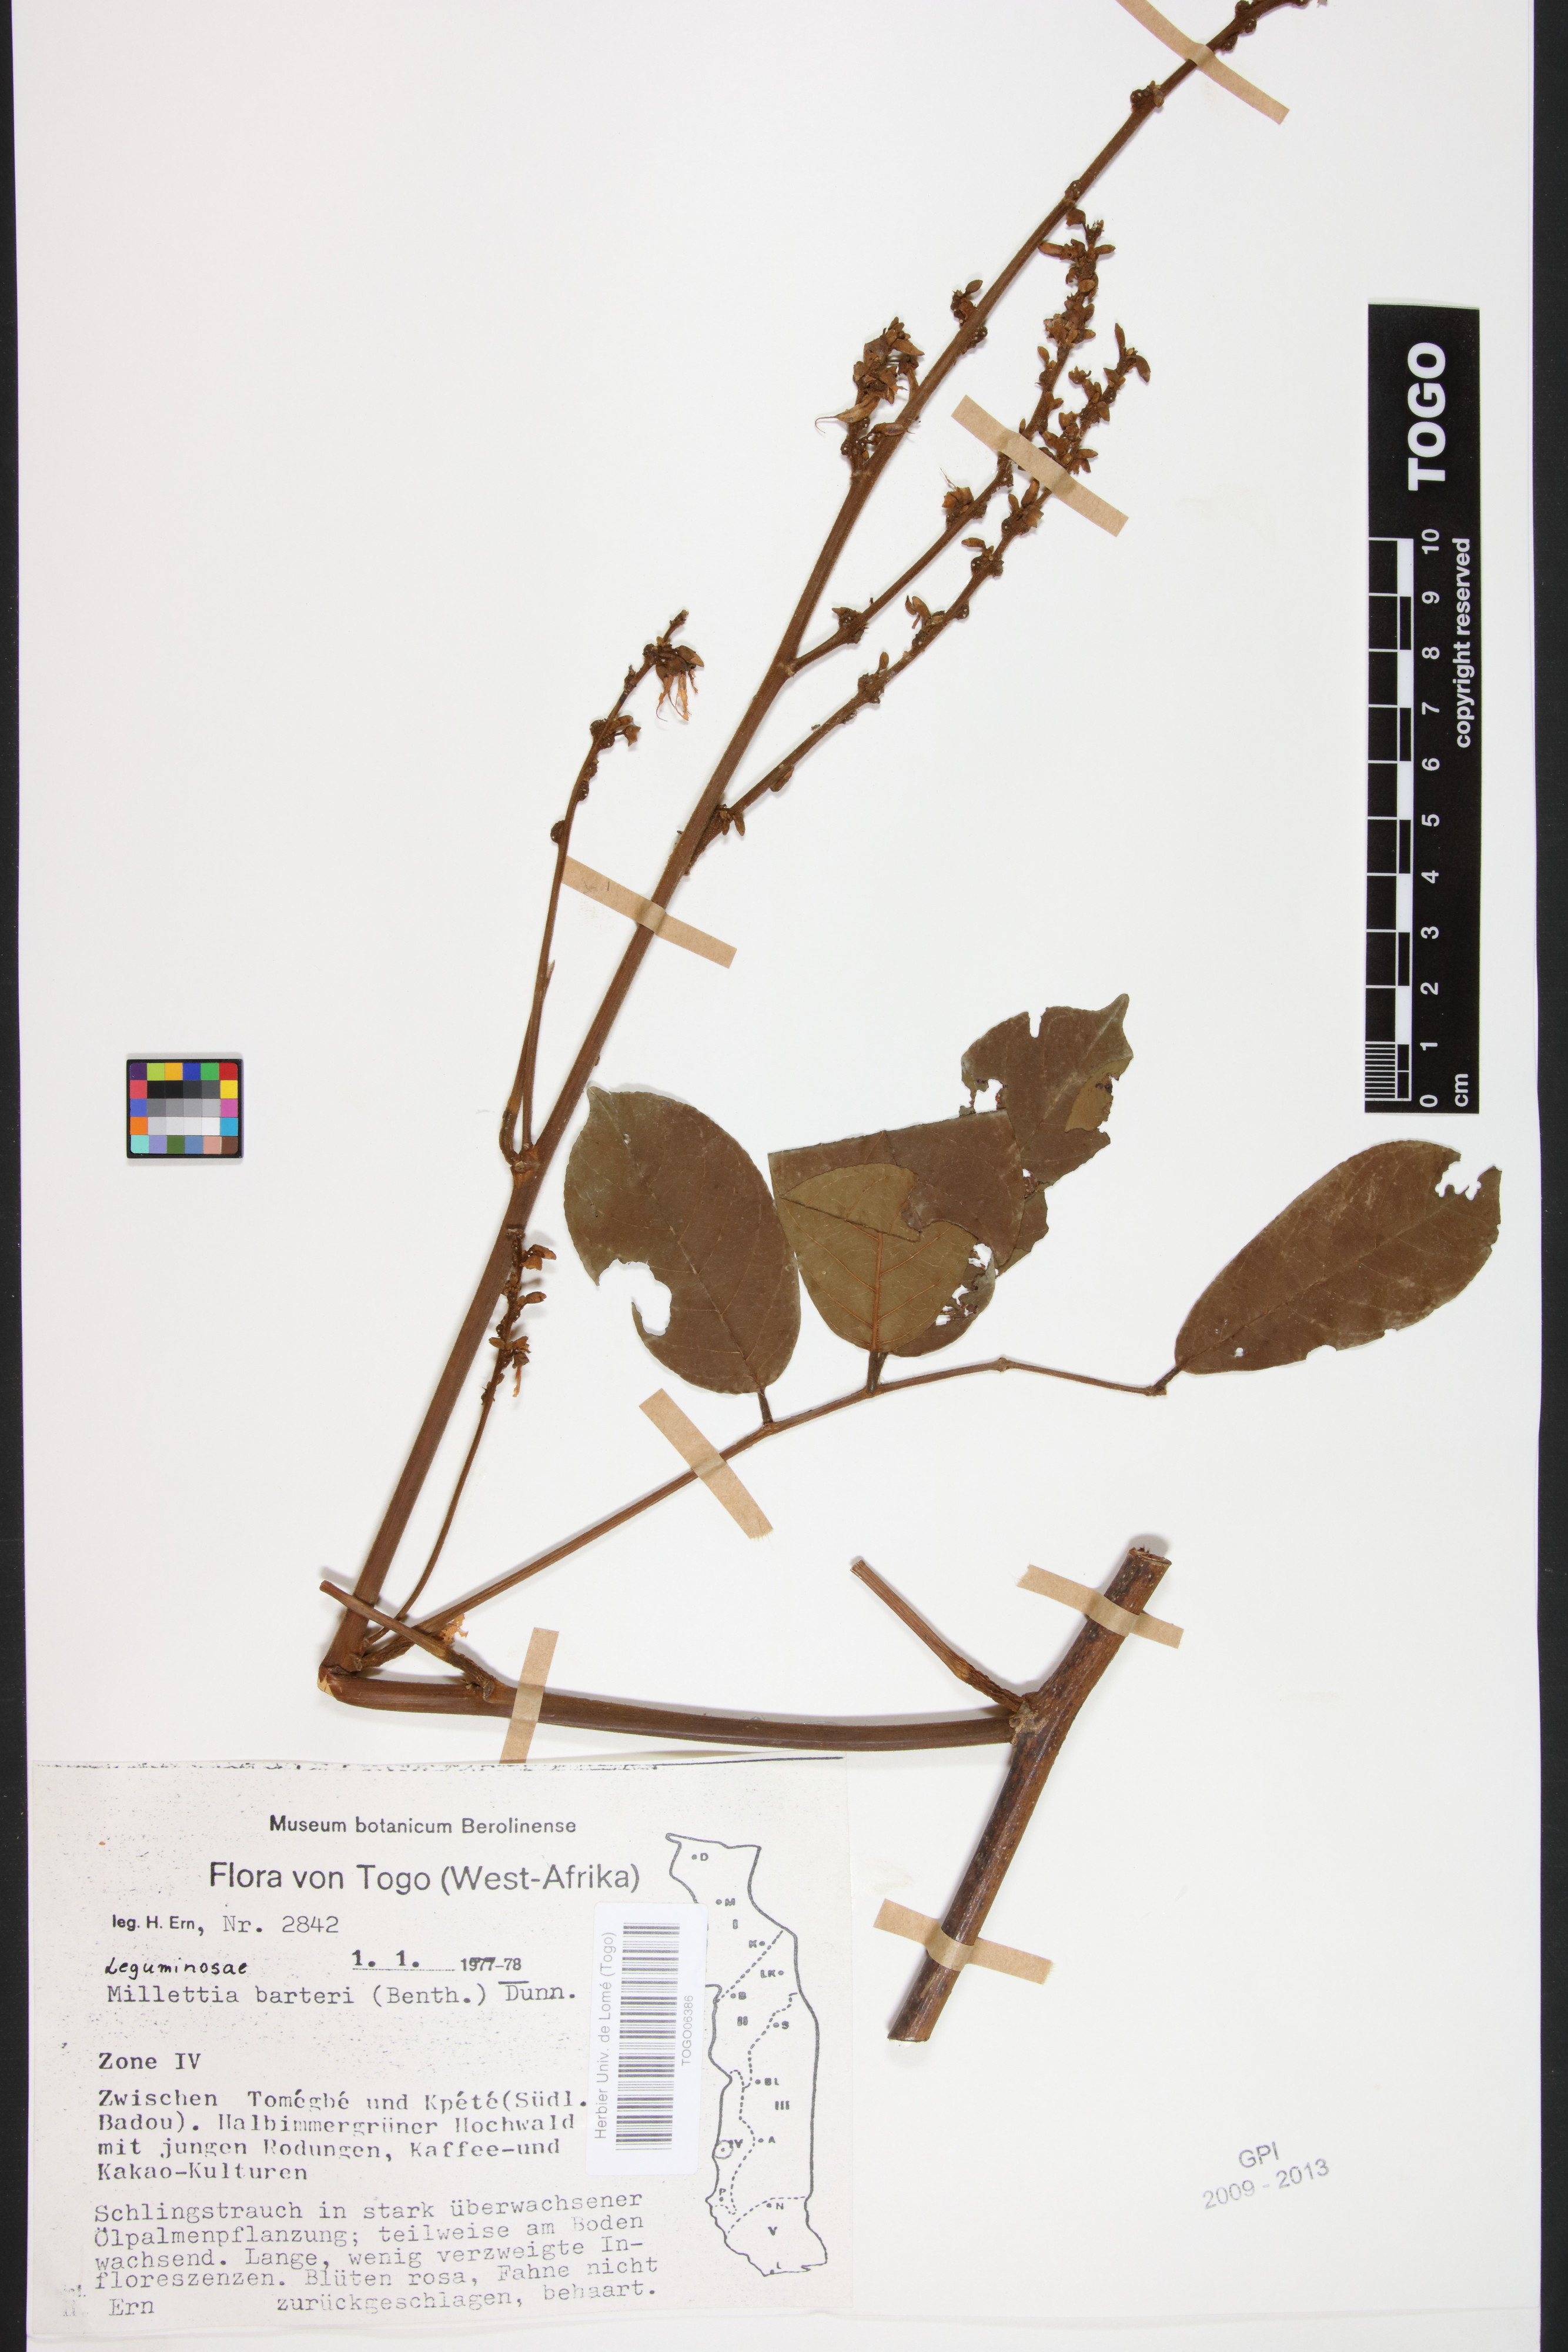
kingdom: Plantae
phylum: Tracheophyta
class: Magnoliopsida
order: Fabales
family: Fabaceae
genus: Millettia
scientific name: Millettia barteri
